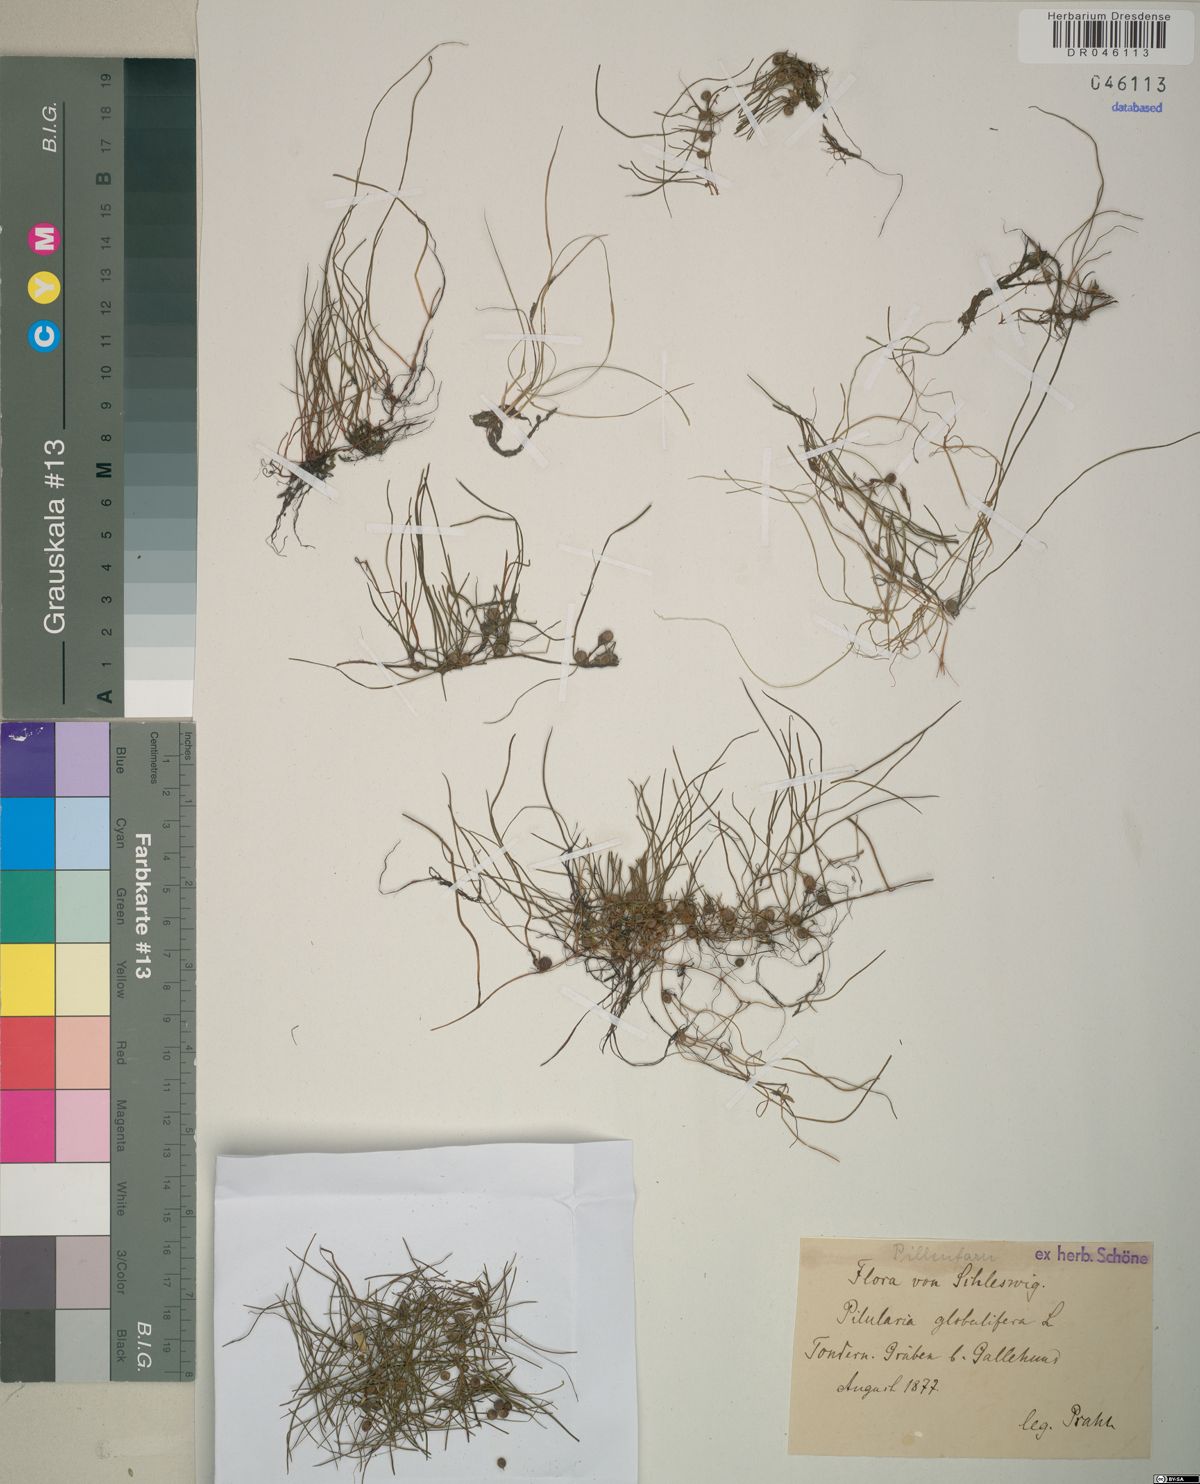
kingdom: Plantae
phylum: Tracheophyta
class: Polypodiopsida
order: Salviniales
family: Marsileaceae
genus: Pilularia
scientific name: Pilularia globulifera
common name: Pillwort
